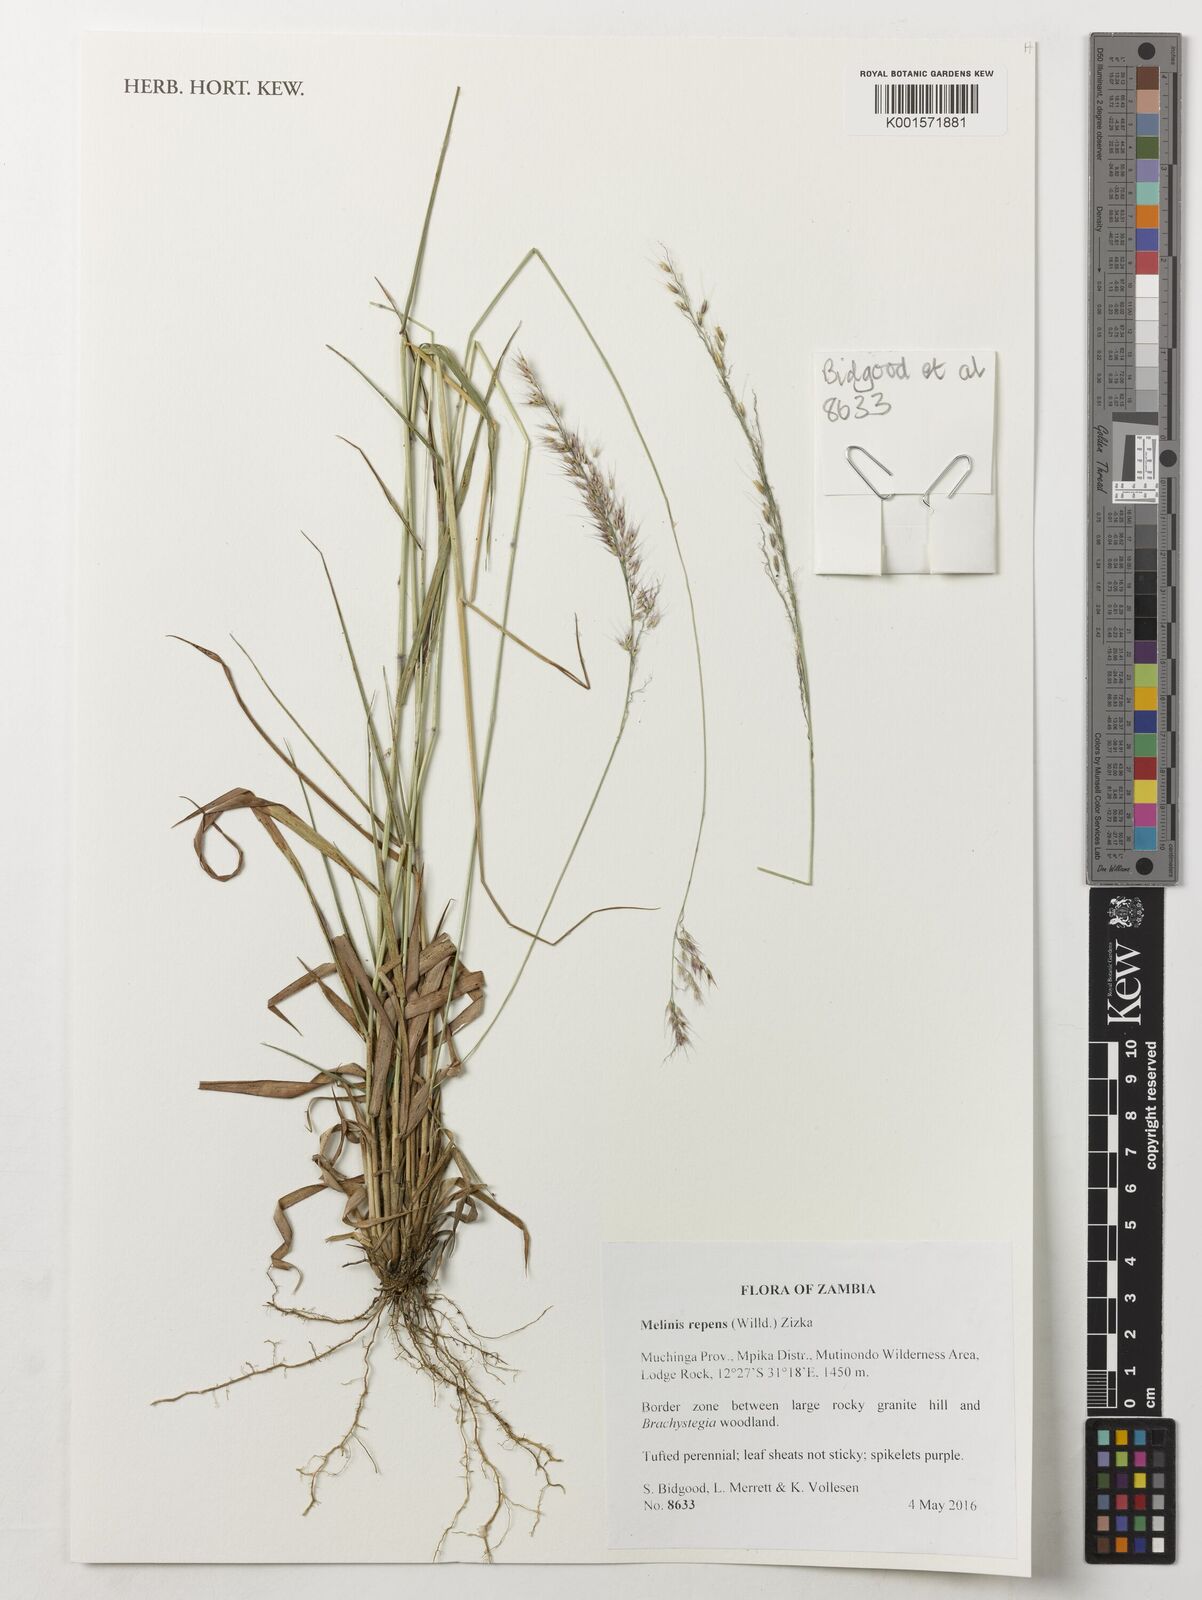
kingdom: Plantae
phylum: Tracheophyta
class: Liliopsida
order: Poales
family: Poaceae
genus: Melinis
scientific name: Melinis repens
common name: Rose natal grass
